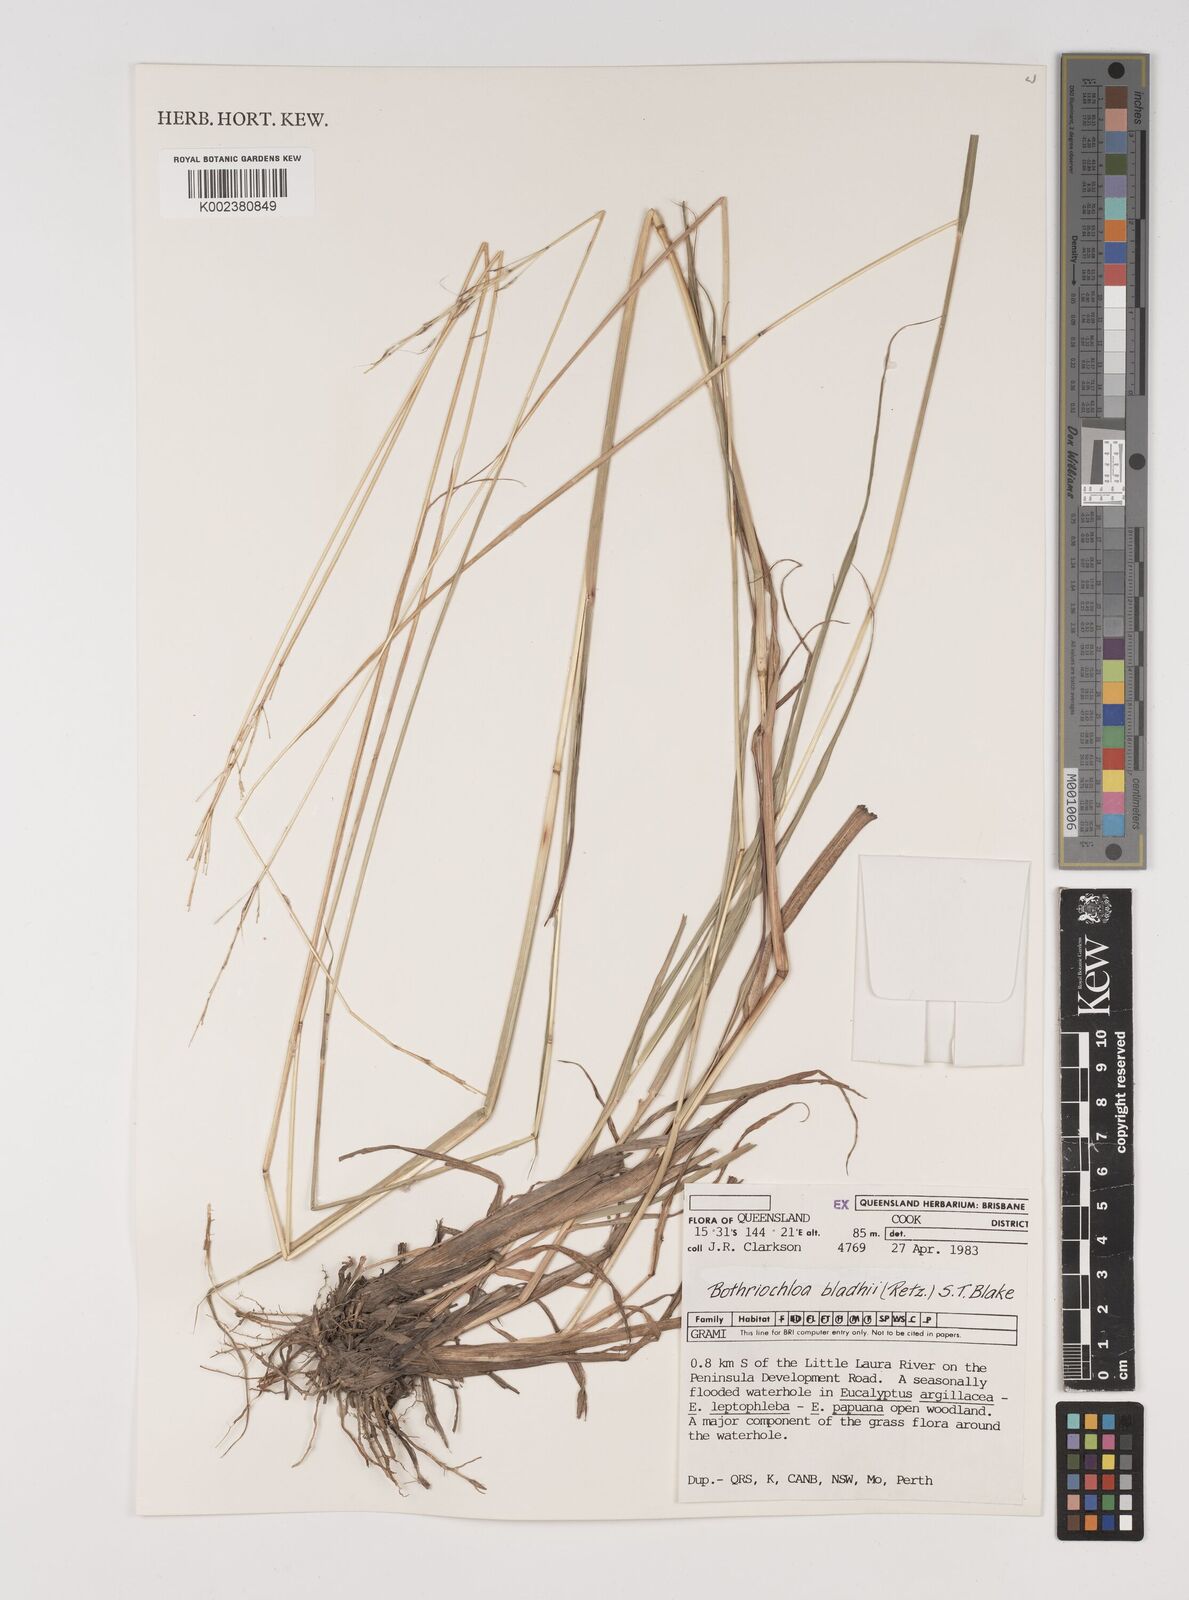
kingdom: Plantae
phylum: Tracheophyta
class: Liliopsida
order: Poales
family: Poaceae
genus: Bothriochloa
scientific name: Bothriochloa bladhii
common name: Caucasian bluestem
